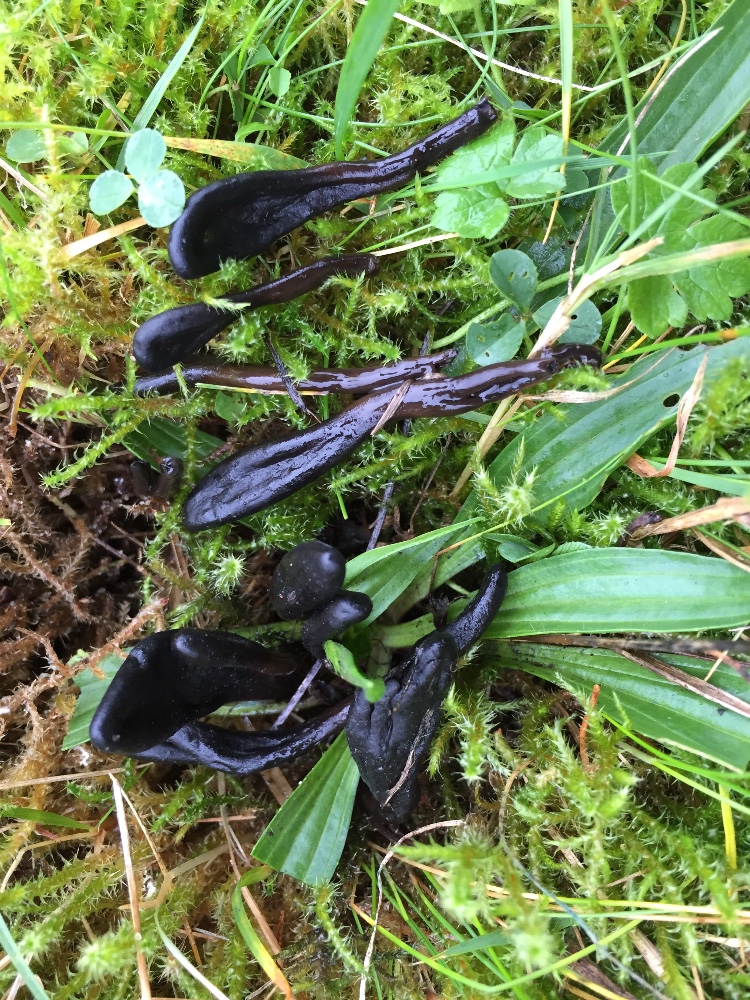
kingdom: Fungi
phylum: Ascomycota
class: Geoglossomycetes
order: Geoglossales
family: Geoglossaceae
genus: Glutinoglossum
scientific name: Glutinoglossum
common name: jordtunge
